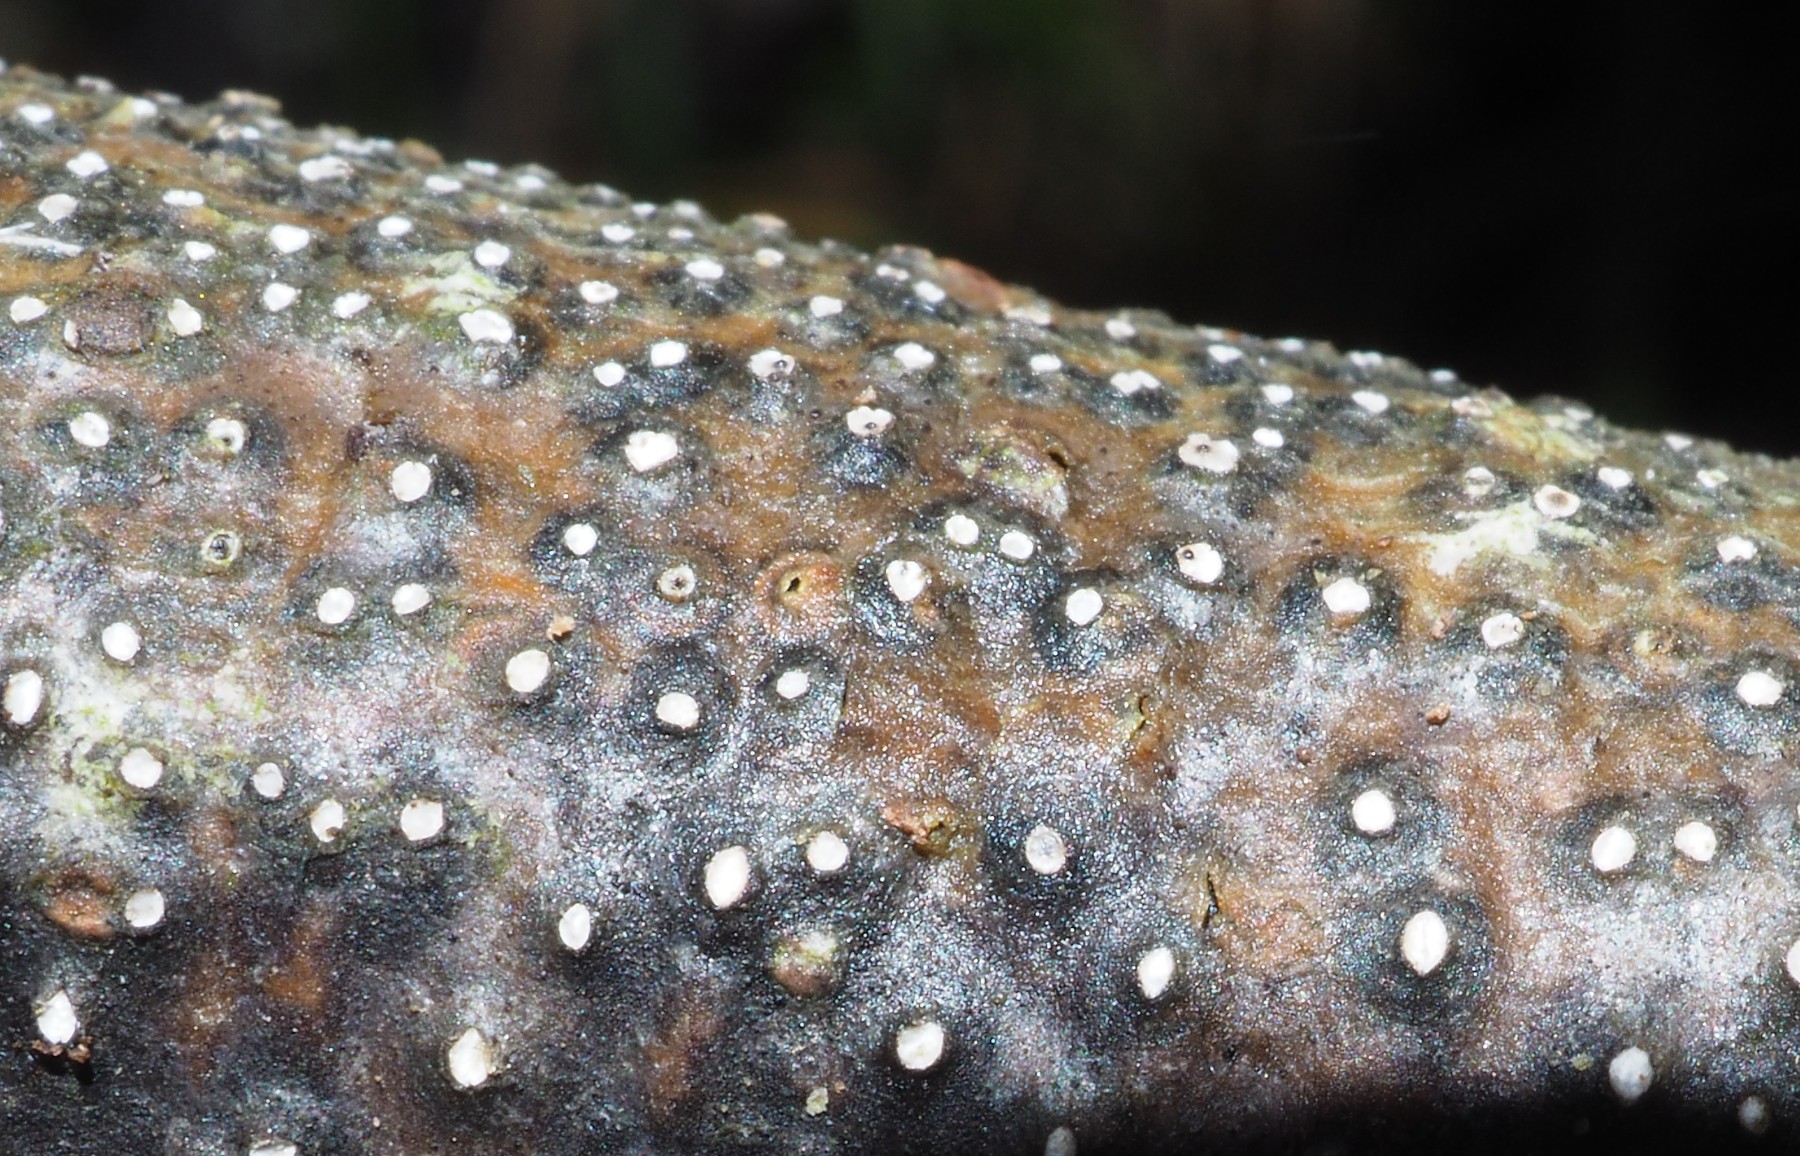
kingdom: Fungi
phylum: Ascomycota
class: Sordariomycetes
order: Diaporthales
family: Valsaceae
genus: Cytospora
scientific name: Cytospora nivea
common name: hvidskivet kulknippe
